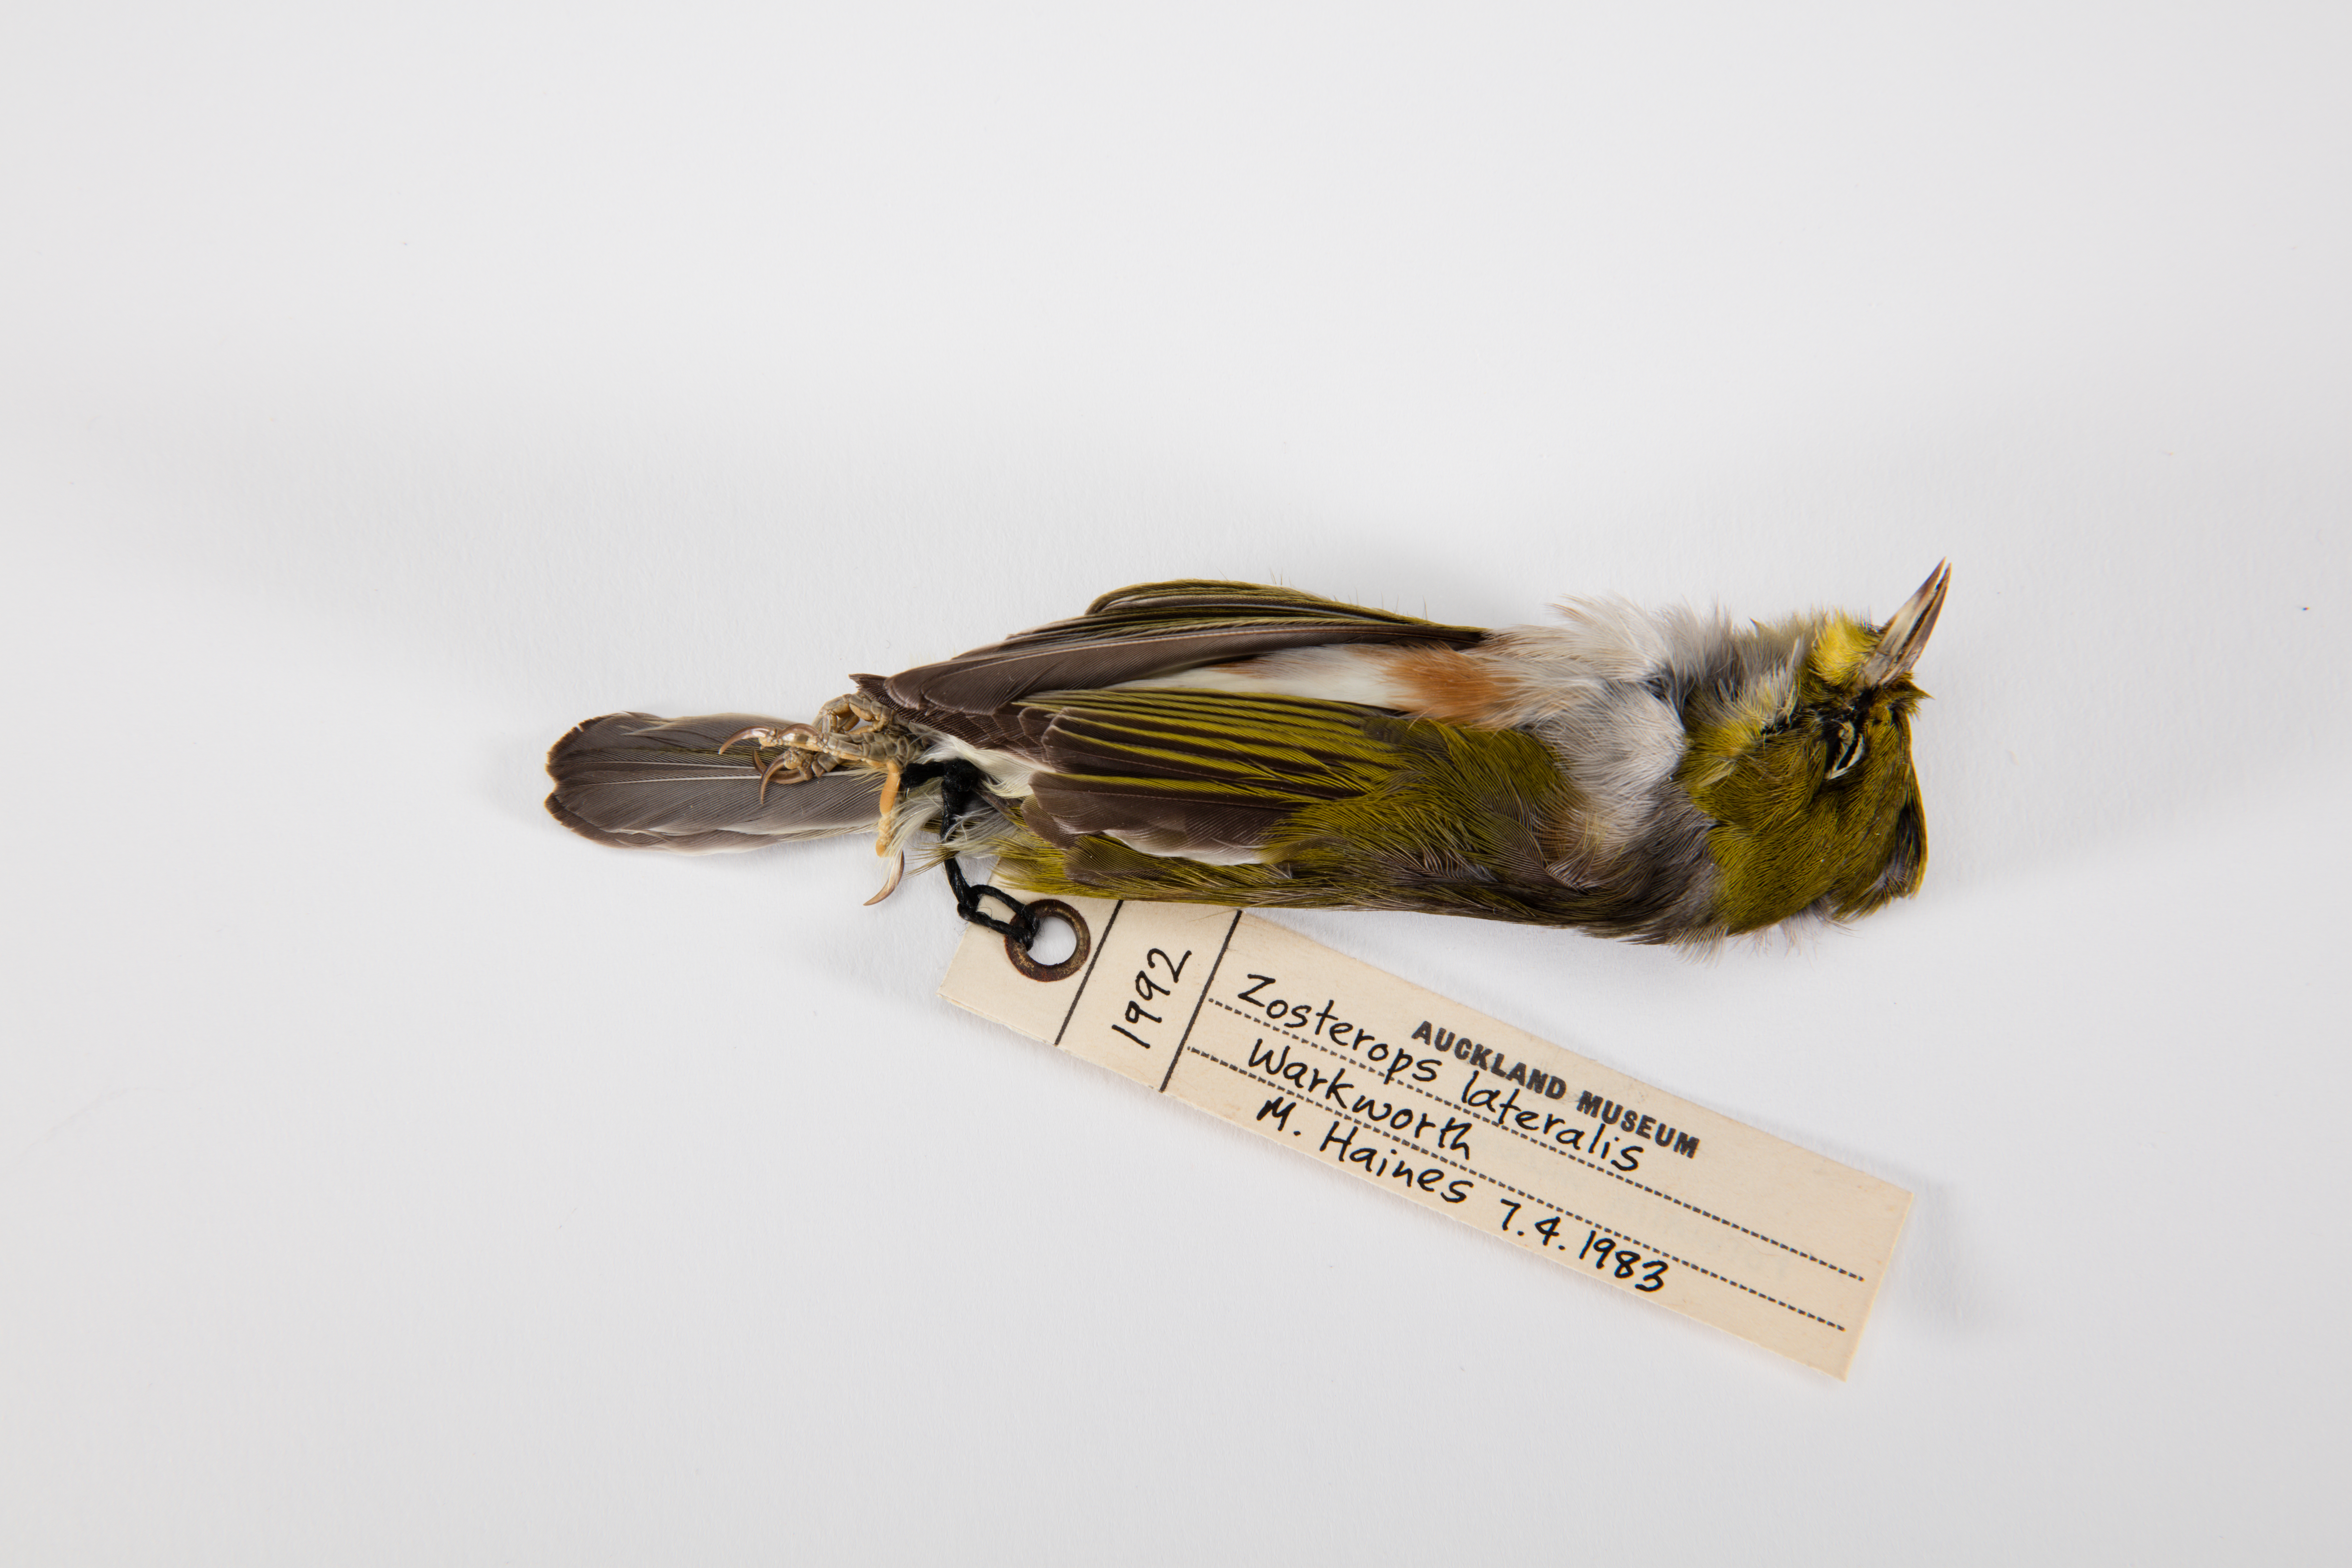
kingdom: Animalia
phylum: Chordata
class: Aves
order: Passeriformes
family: Zosteropidae
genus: Zosterops
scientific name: Zosterops lateralis
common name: Silvereye
